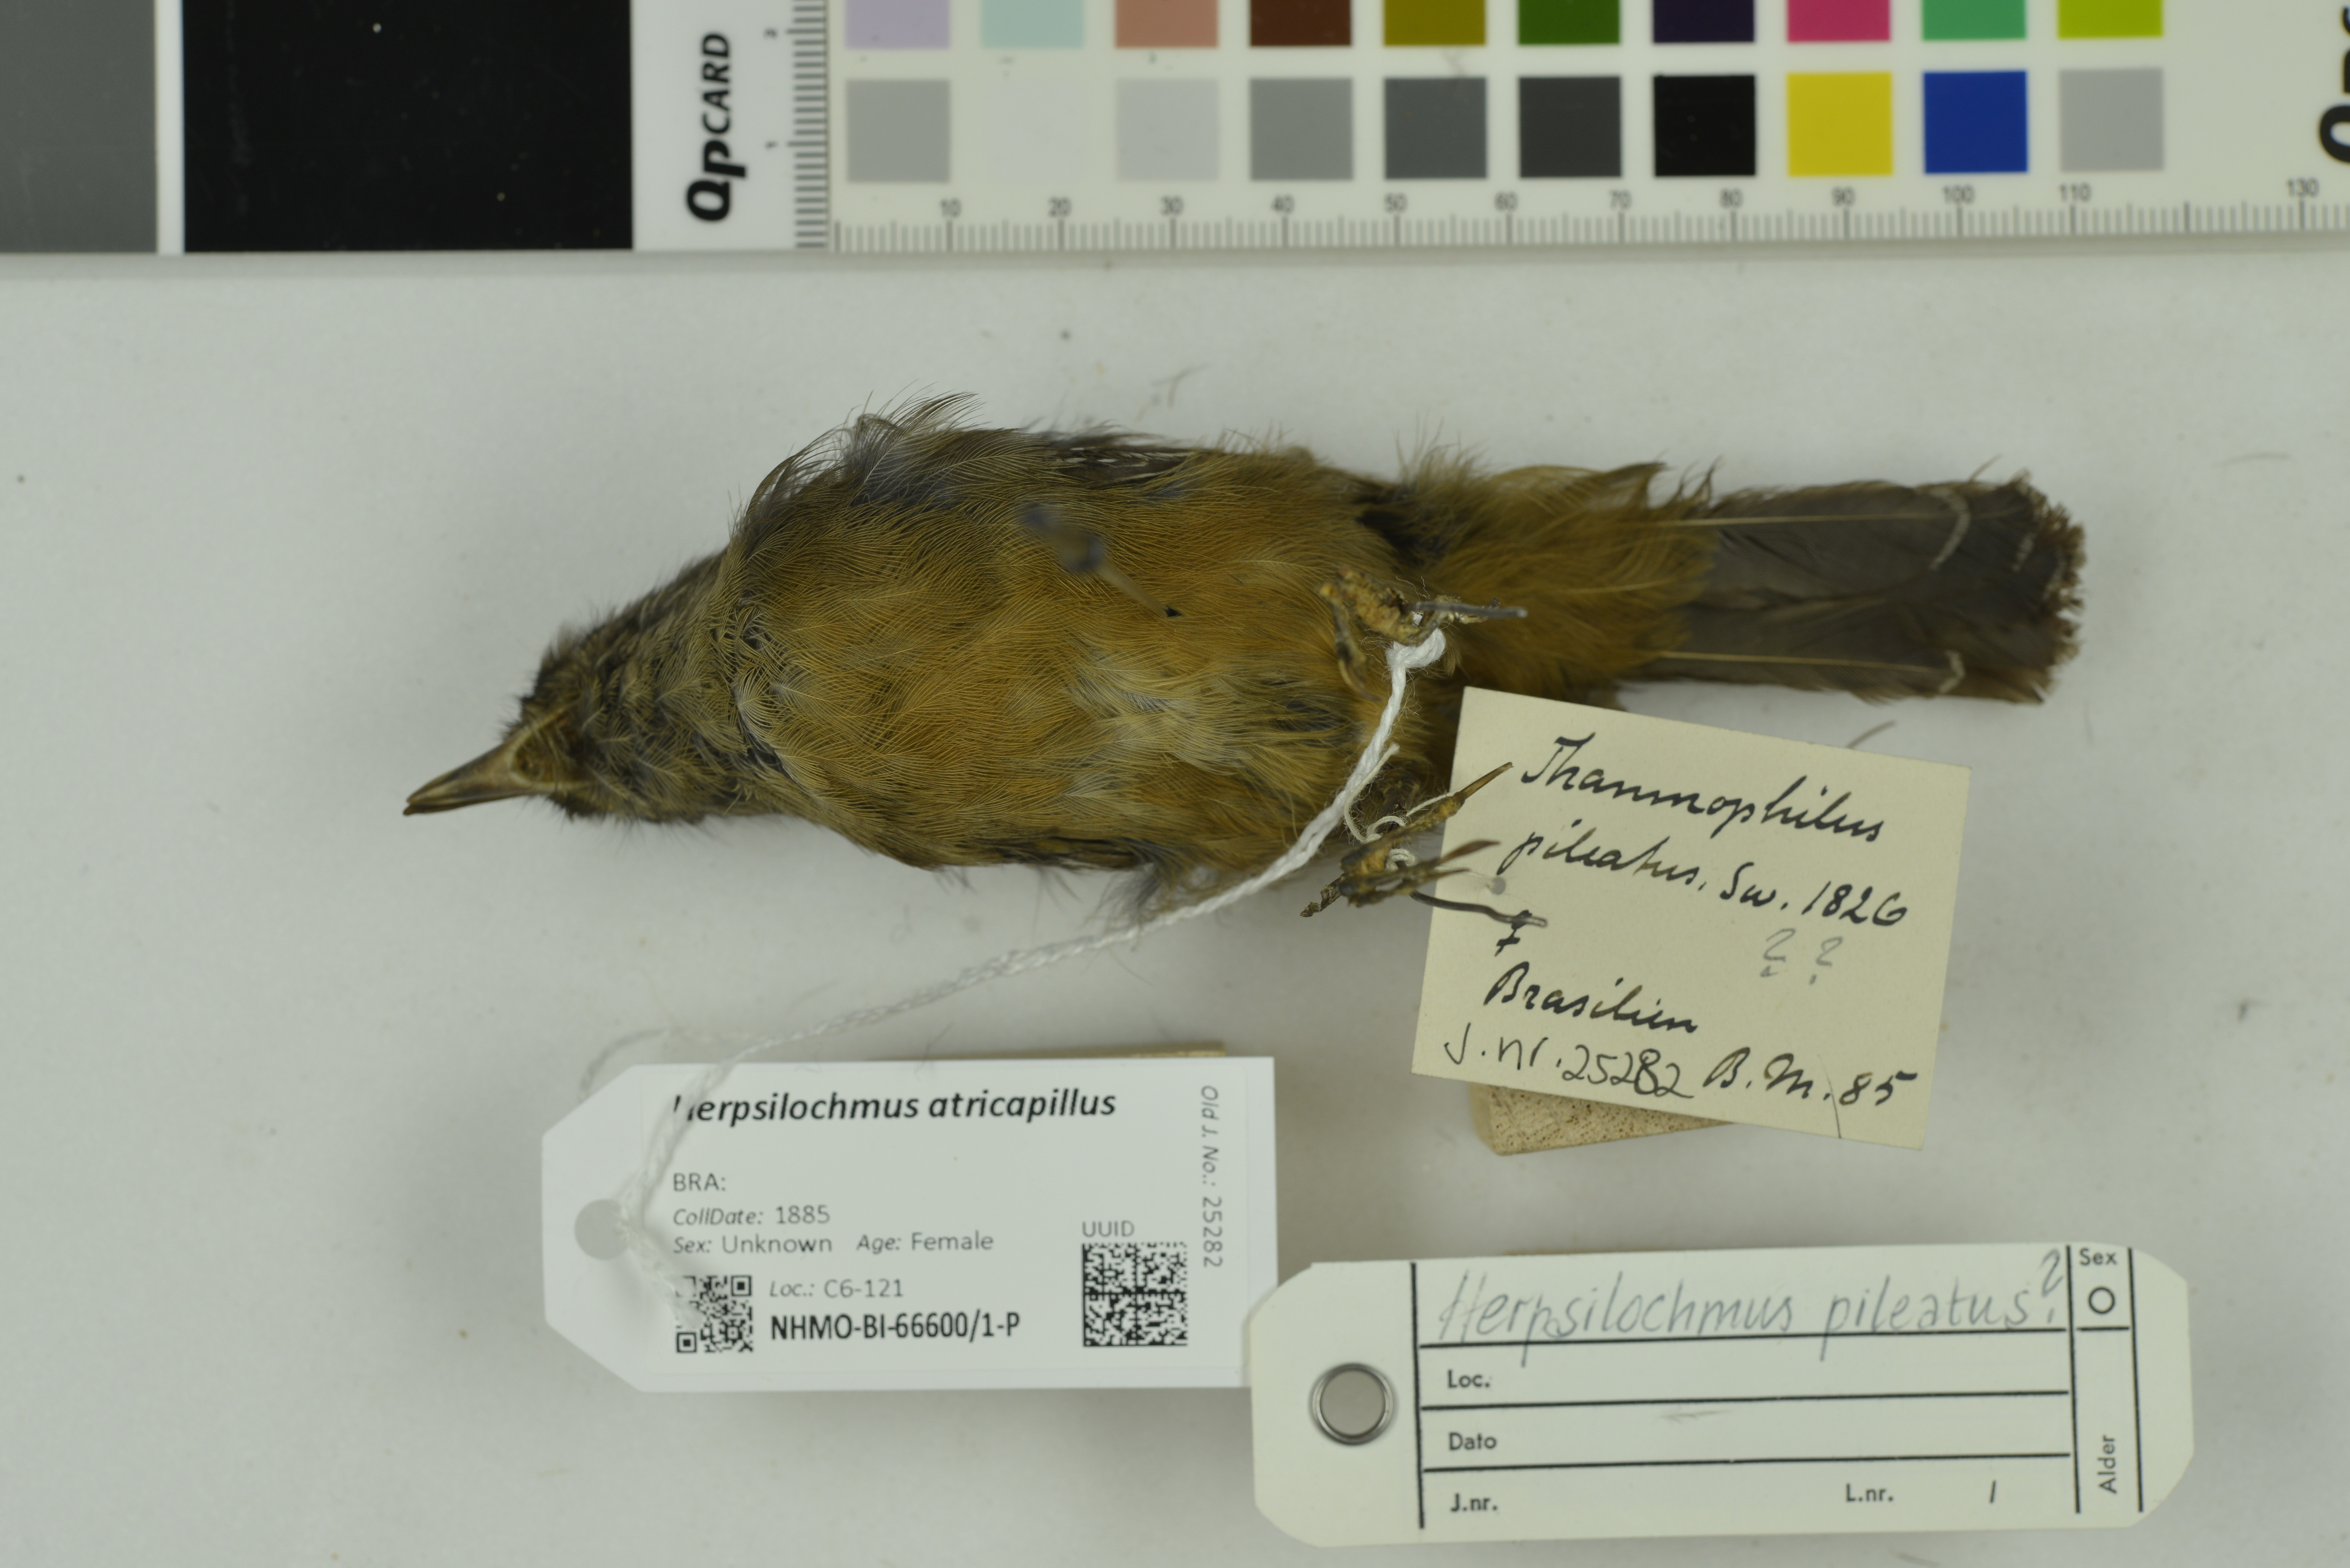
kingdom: Animalia
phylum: Chordata
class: Aves
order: Passeriformes
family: Thamnophilidae
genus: Herpsilochmus
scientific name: Herpsilochmus atricapillus
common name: Black-capped antwren
